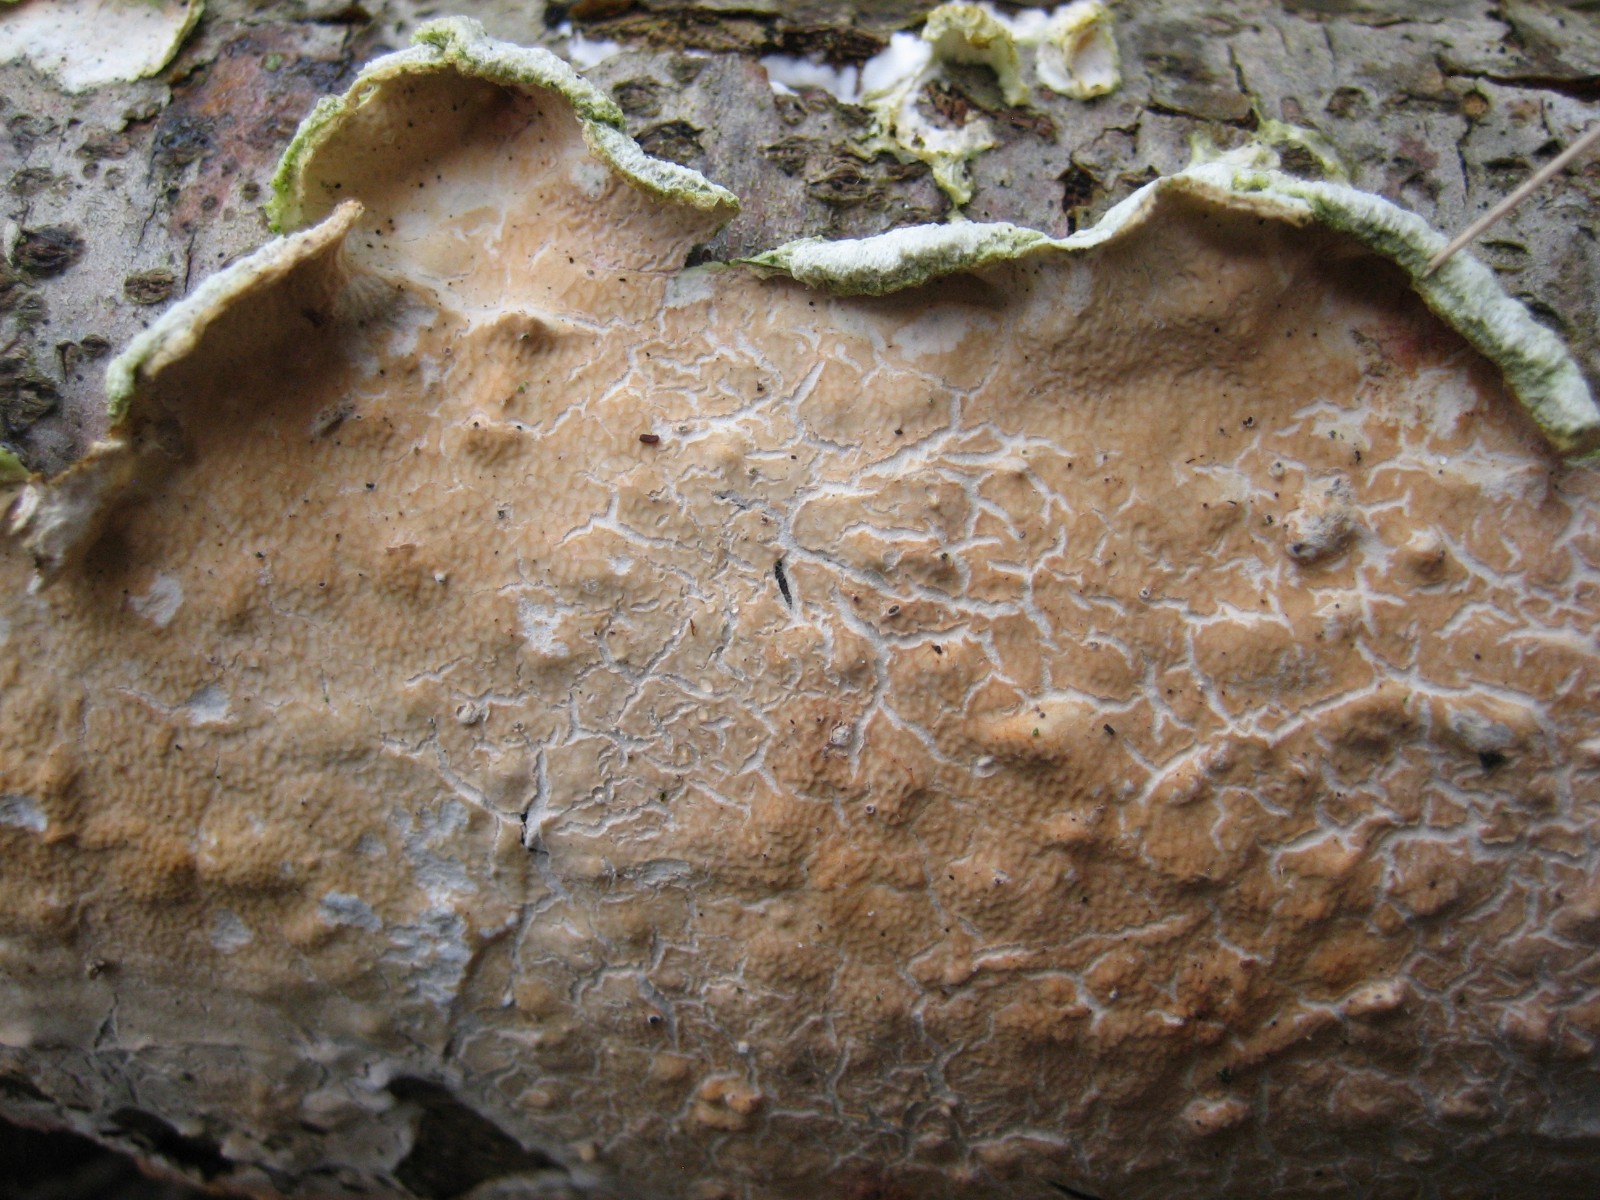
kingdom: Fungi
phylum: Basidiomycota
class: Agaricomycetes
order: Agaricales
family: Physalacriaceae
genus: Cylindrobasidium
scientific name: Cylindrobasidium evolvens
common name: sprækkehinde
